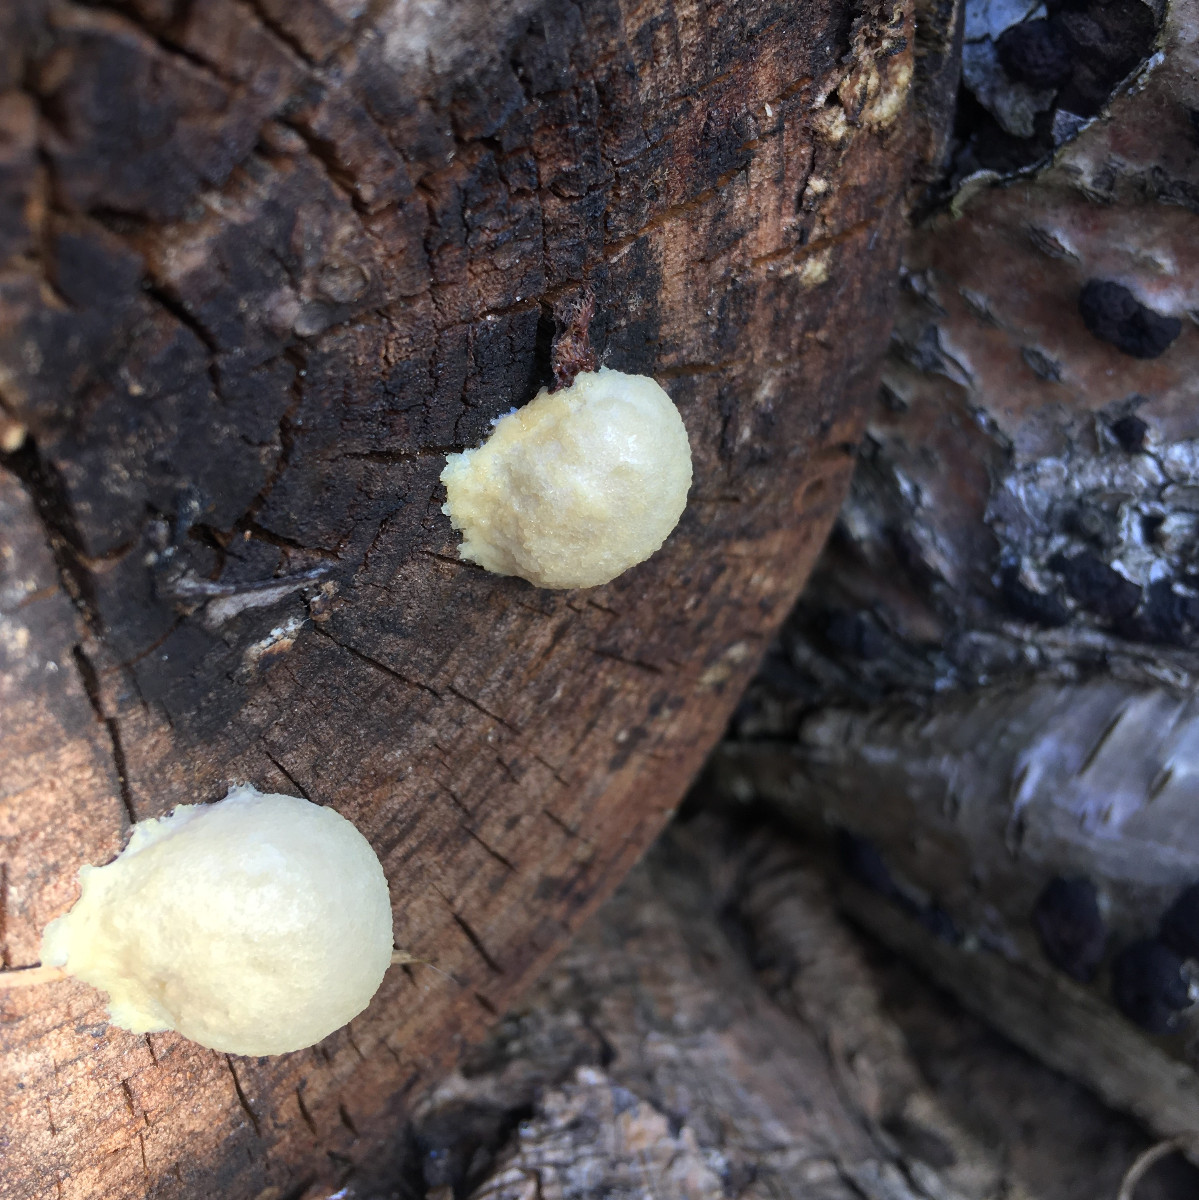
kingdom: Protozoa
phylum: Mycetozoa
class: Myxomycetes
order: Cribrariales
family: Tubiferaceae
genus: Reticularia
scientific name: Reticularia lycoperdon
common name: skinnende støvpude
